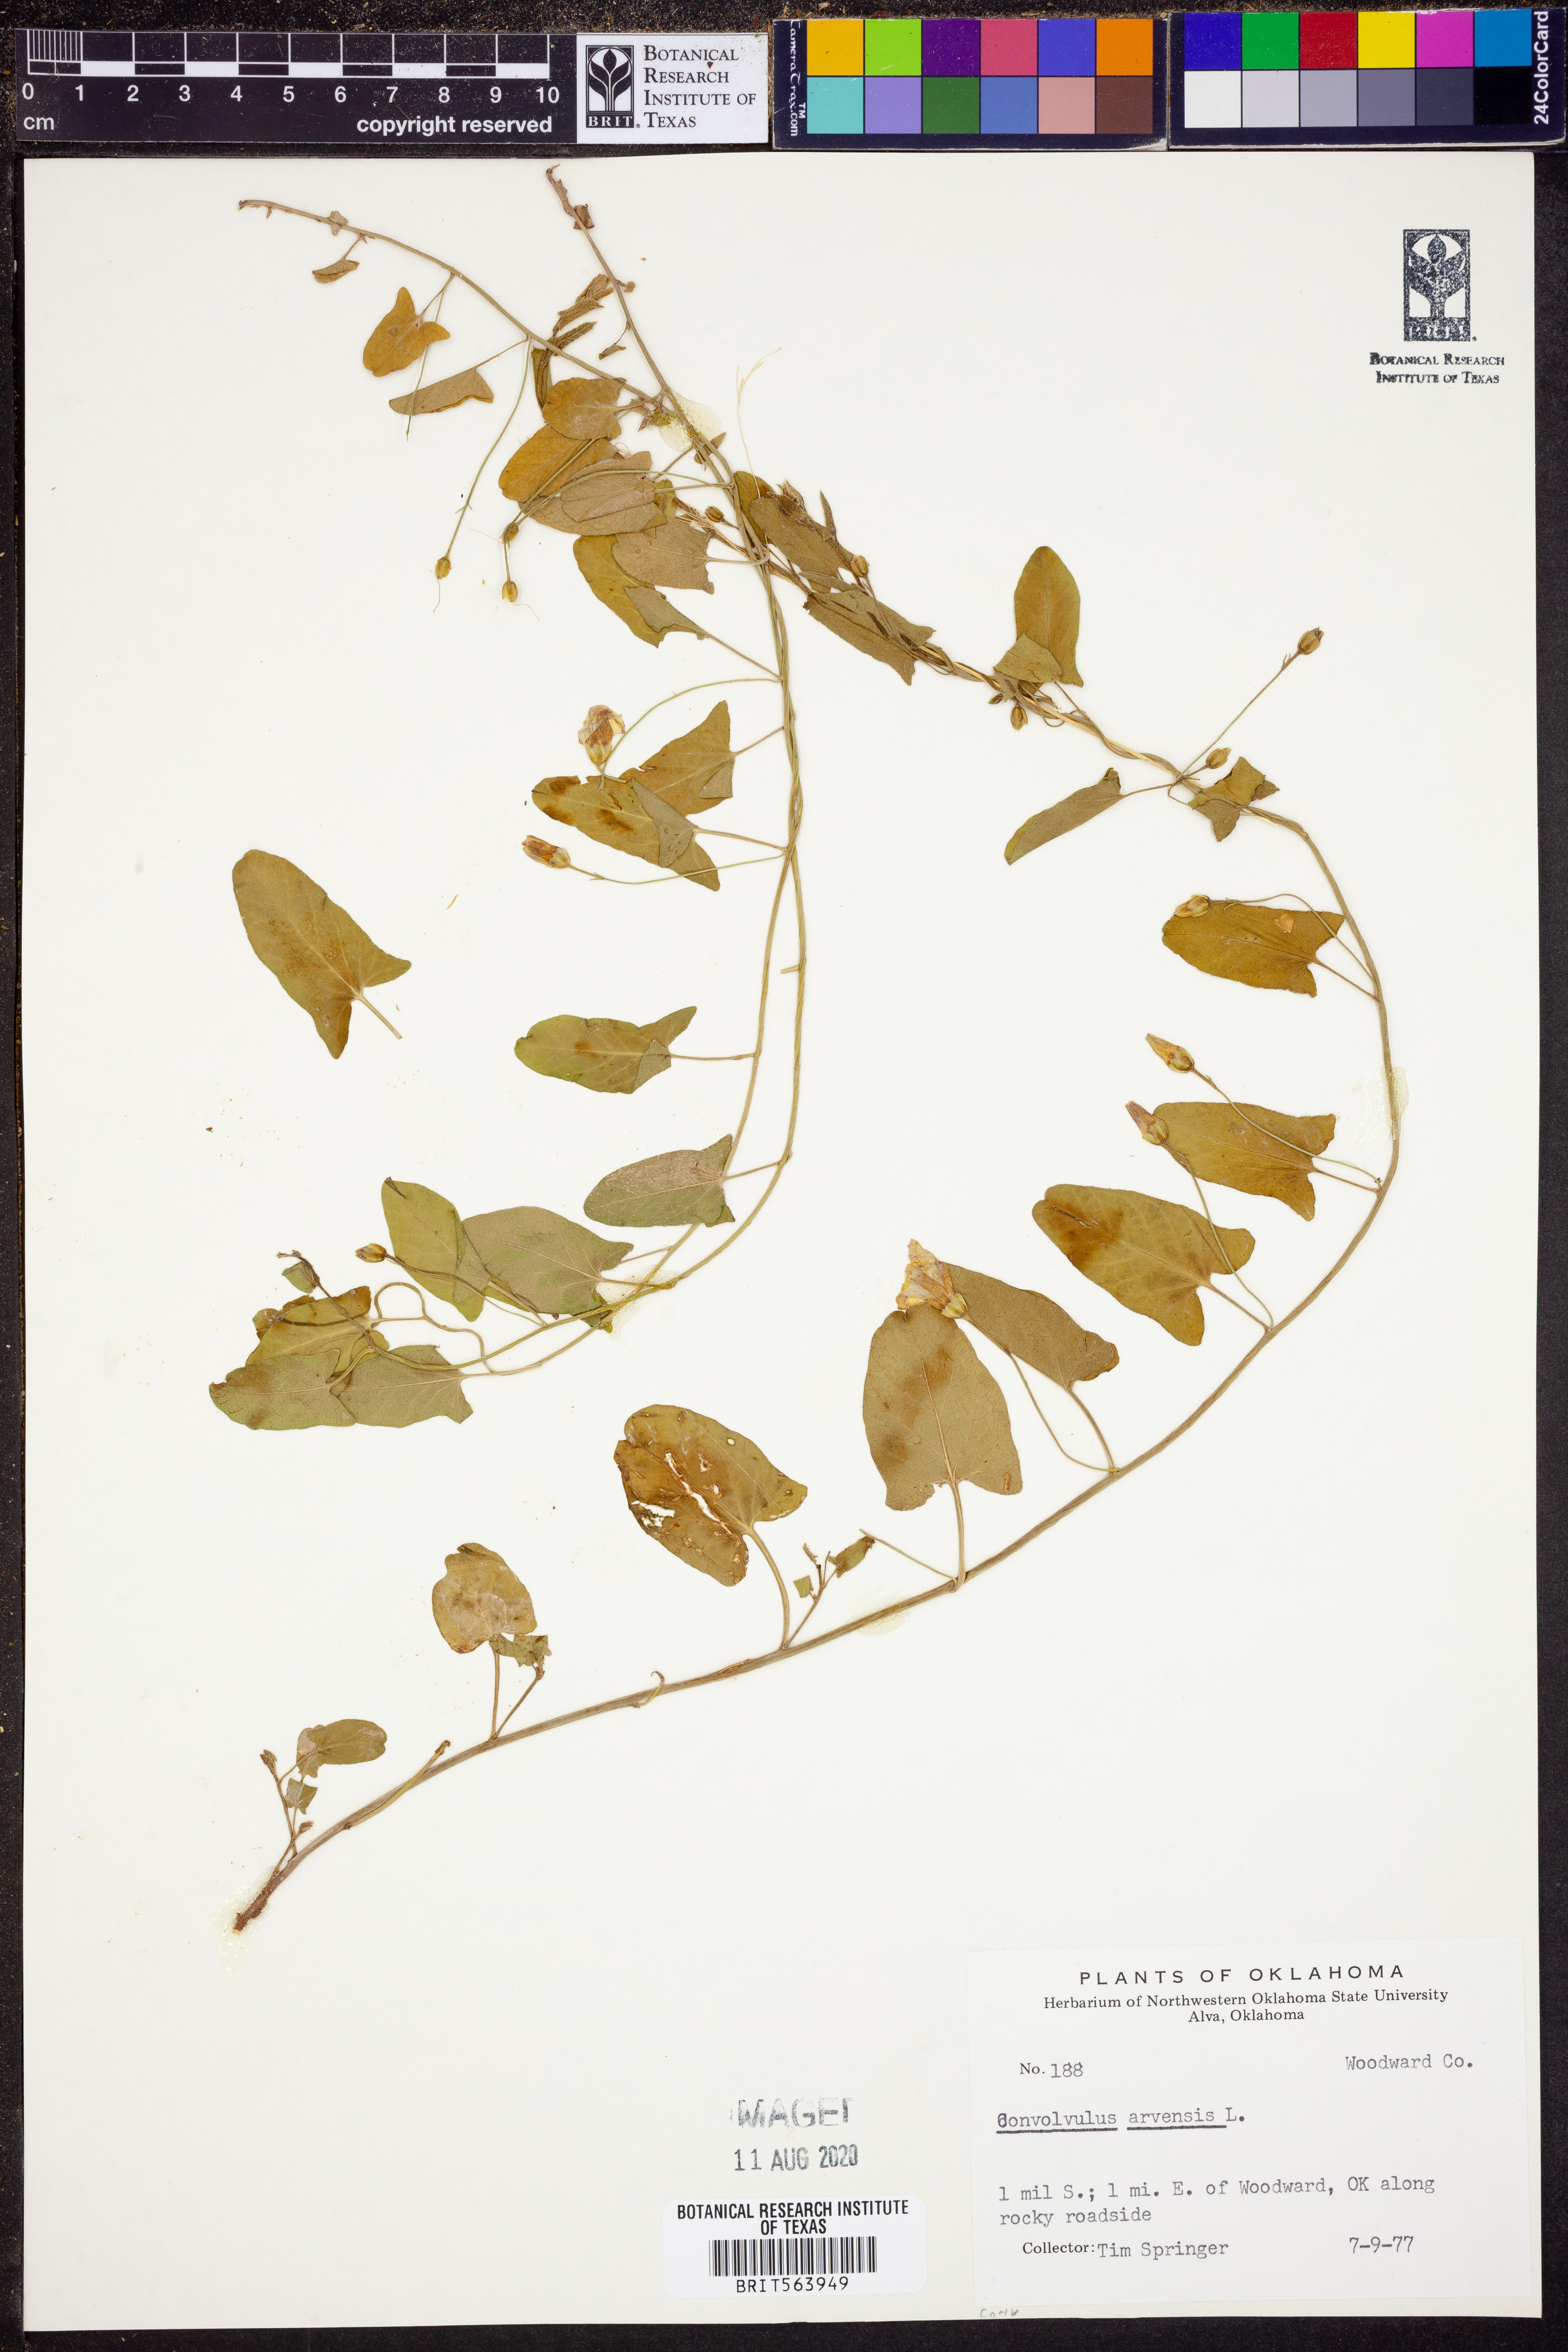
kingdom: Plantae
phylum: Tracheophyta
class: Magnoliopsida
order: Solanales
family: Convolvulaceae
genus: Convolvulus
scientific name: Convolvulus arvensis
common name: Field bindweed
